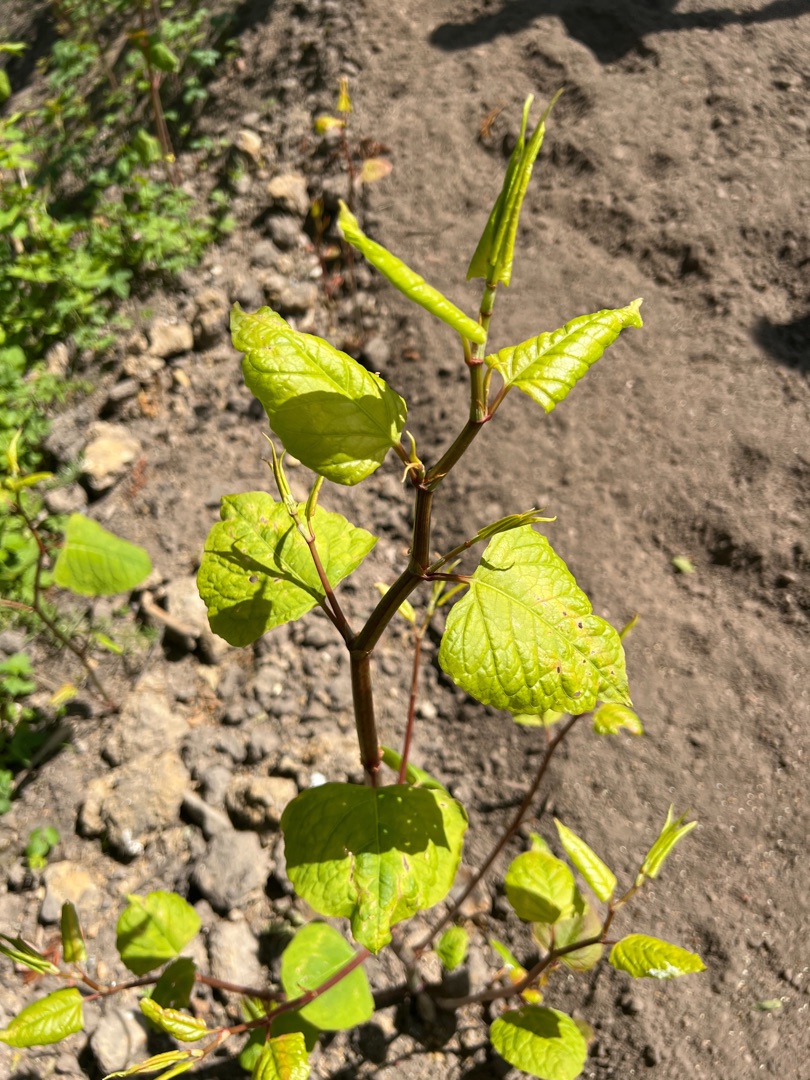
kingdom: Plantae
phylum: Tracheophyta
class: Magnoliopsida
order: Caryophyllales
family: Polygonaceae
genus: Reynoutria
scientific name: Reynoutria bohemica
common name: Hybrid-pileurt
